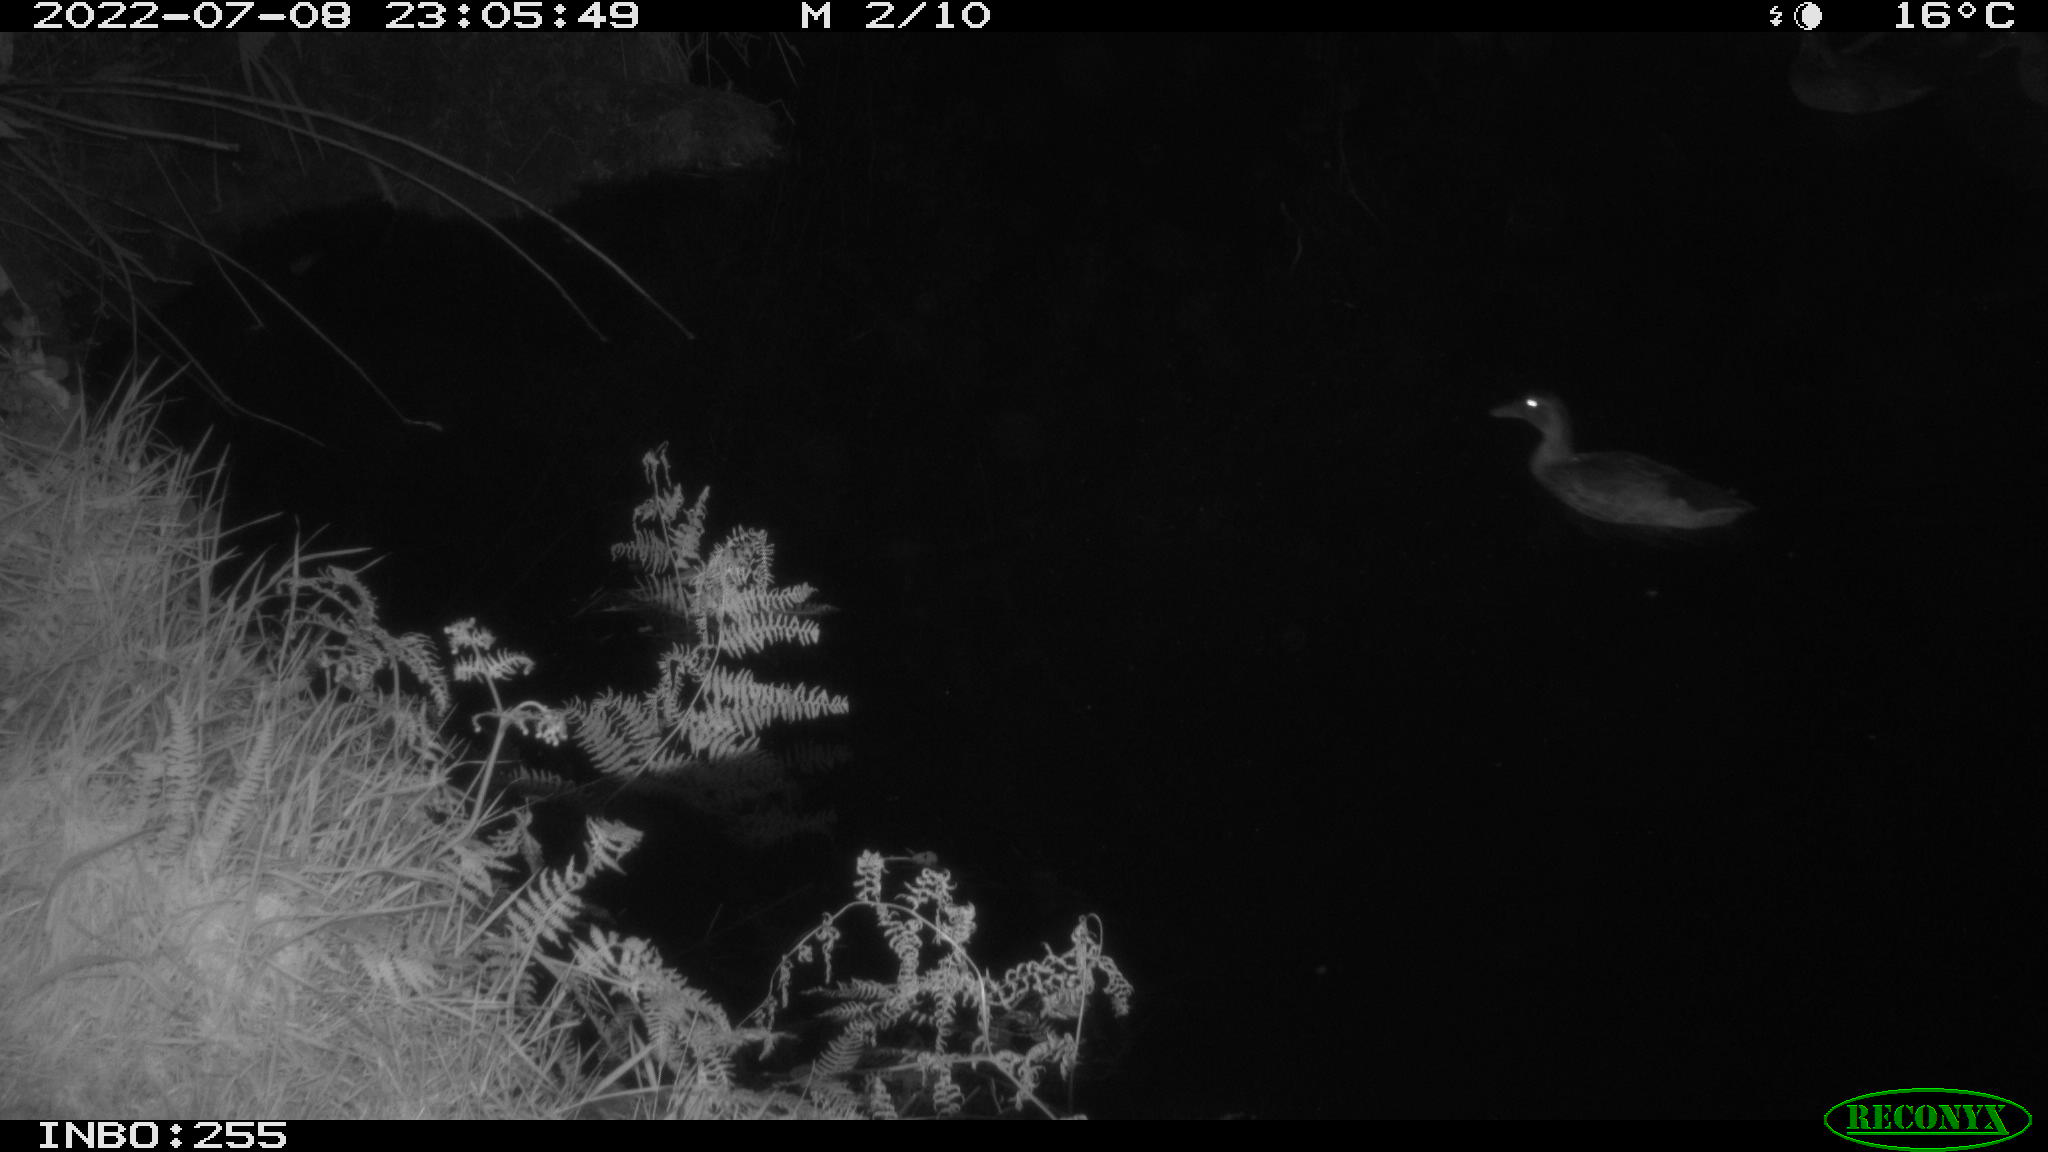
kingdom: Animalia
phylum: Chordata
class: Aves
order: Anseriformes
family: Anatidae
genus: Anas
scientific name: Anas platyrhynchos
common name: Mallard
